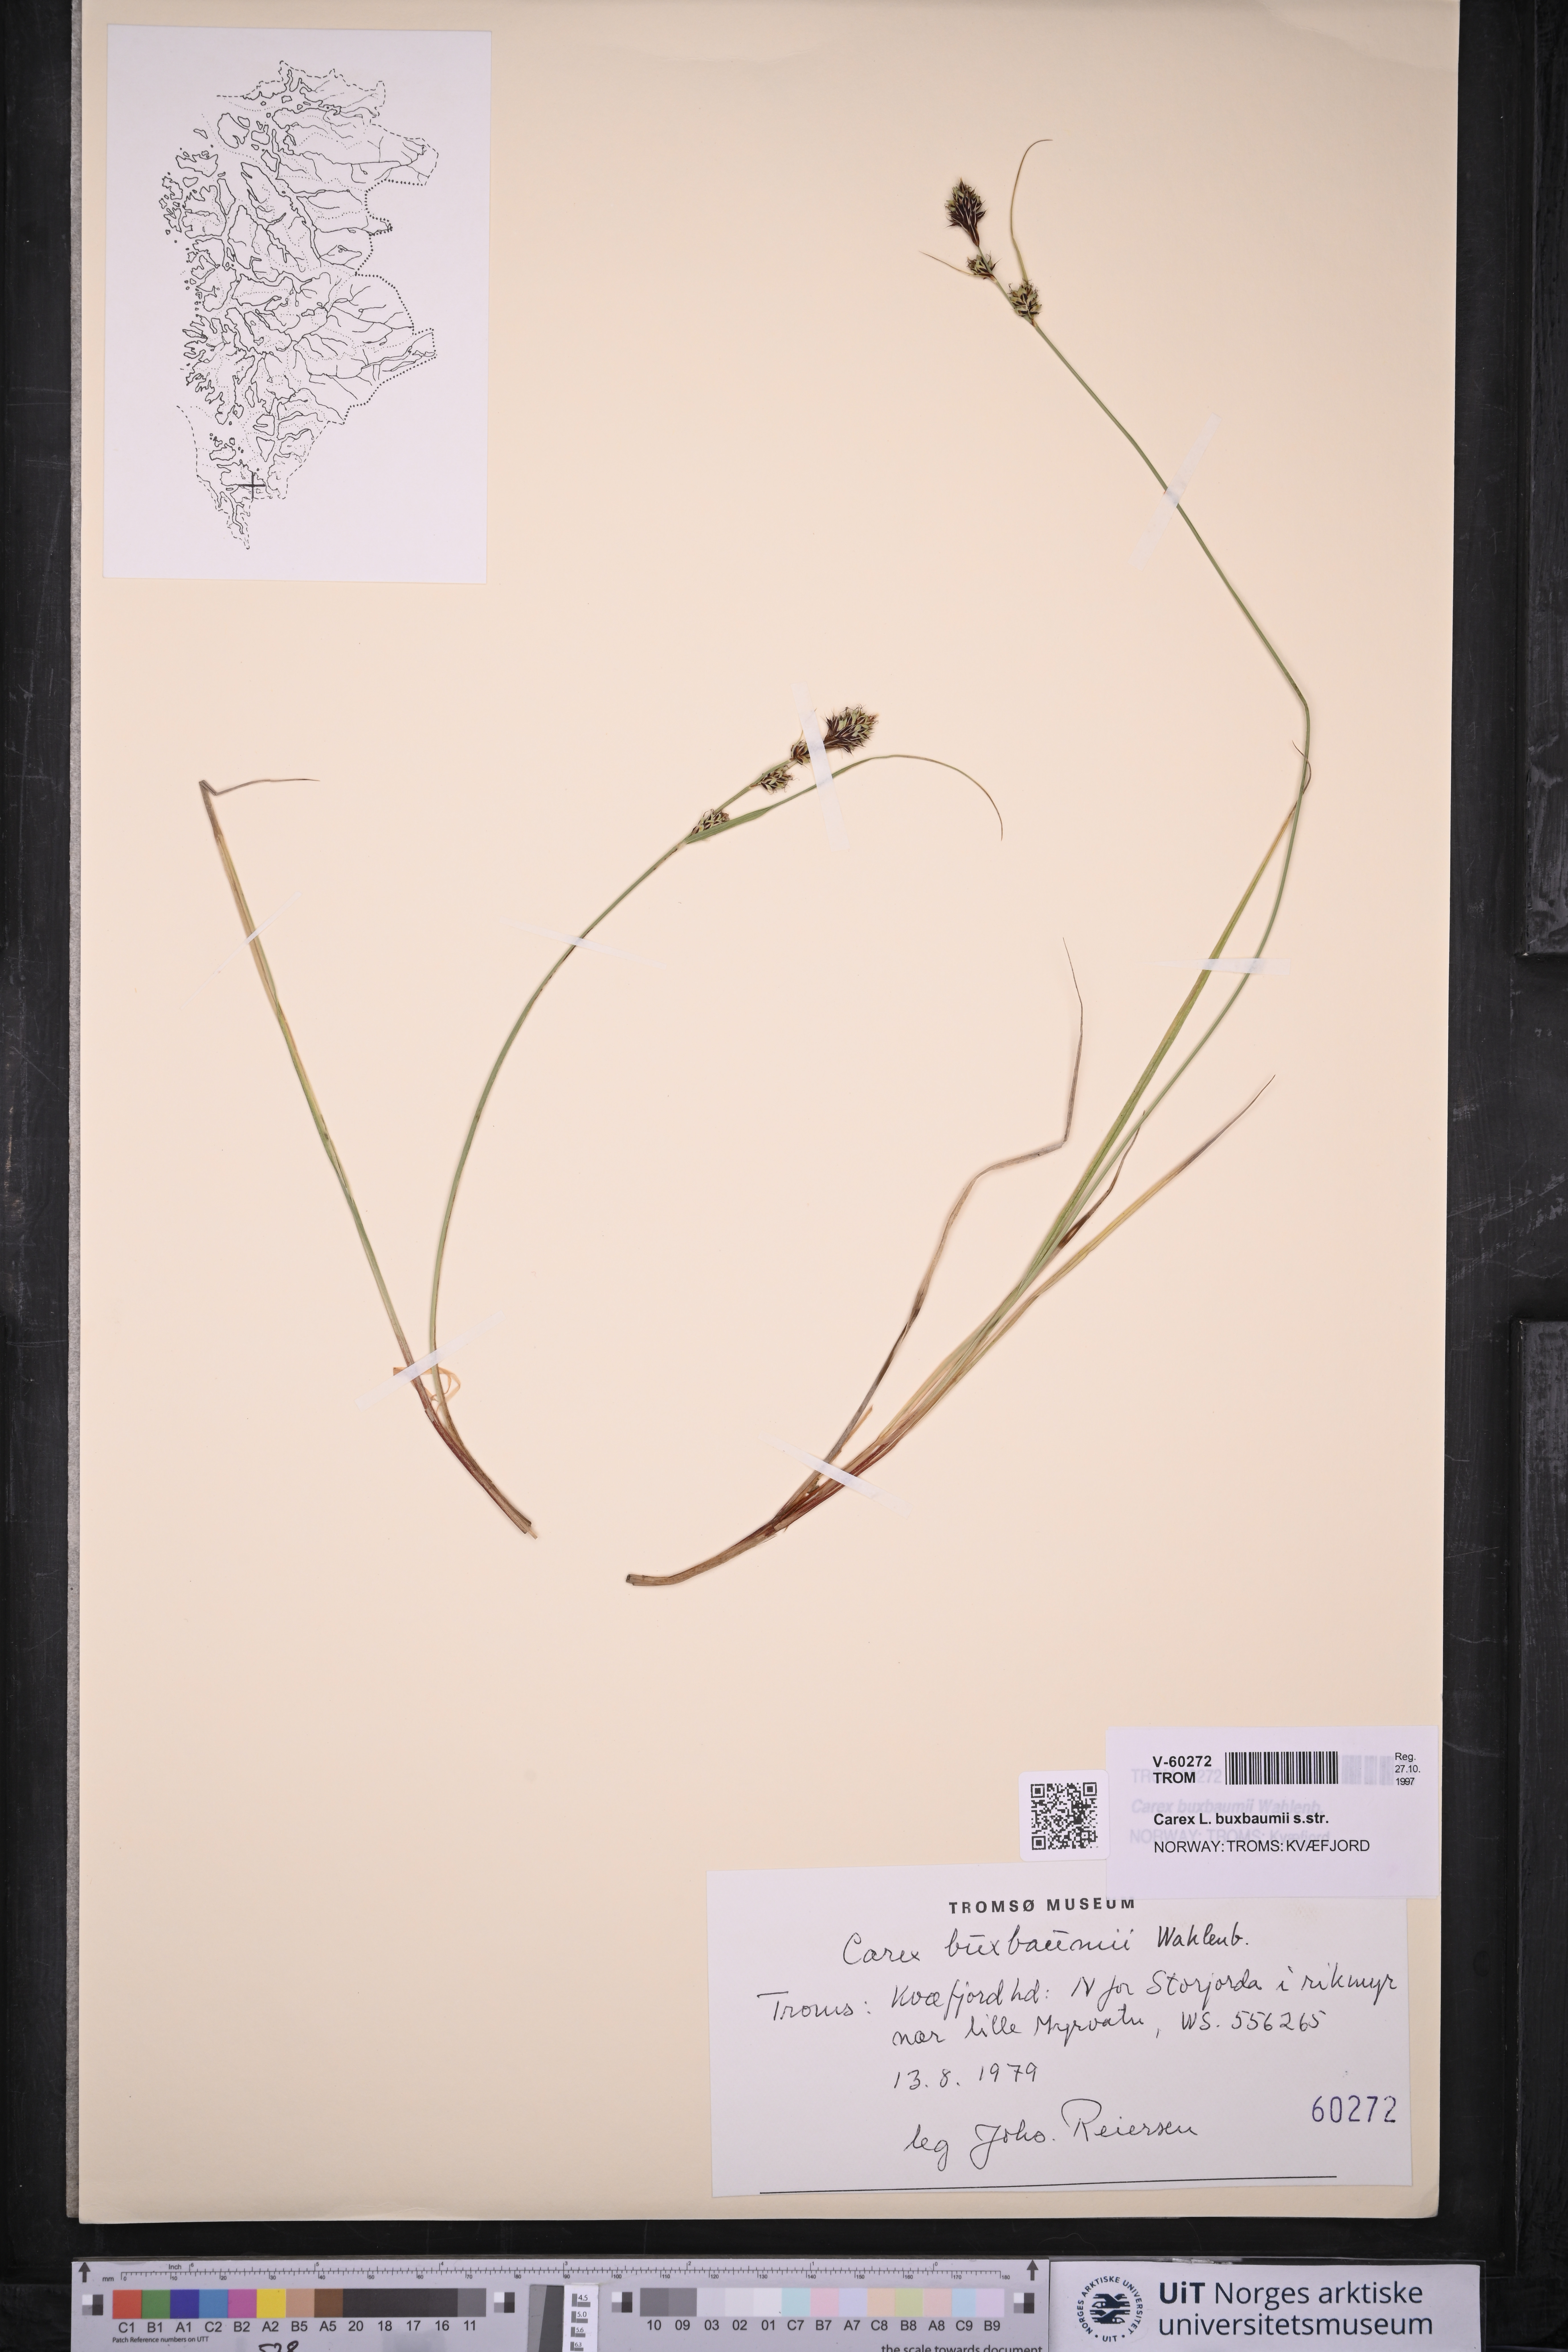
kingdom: Plantae
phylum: Tracheophyta
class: Liliopsida
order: Poales
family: Cyperaceae
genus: Carex
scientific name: Carex buxbaumii
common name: Club sedge
